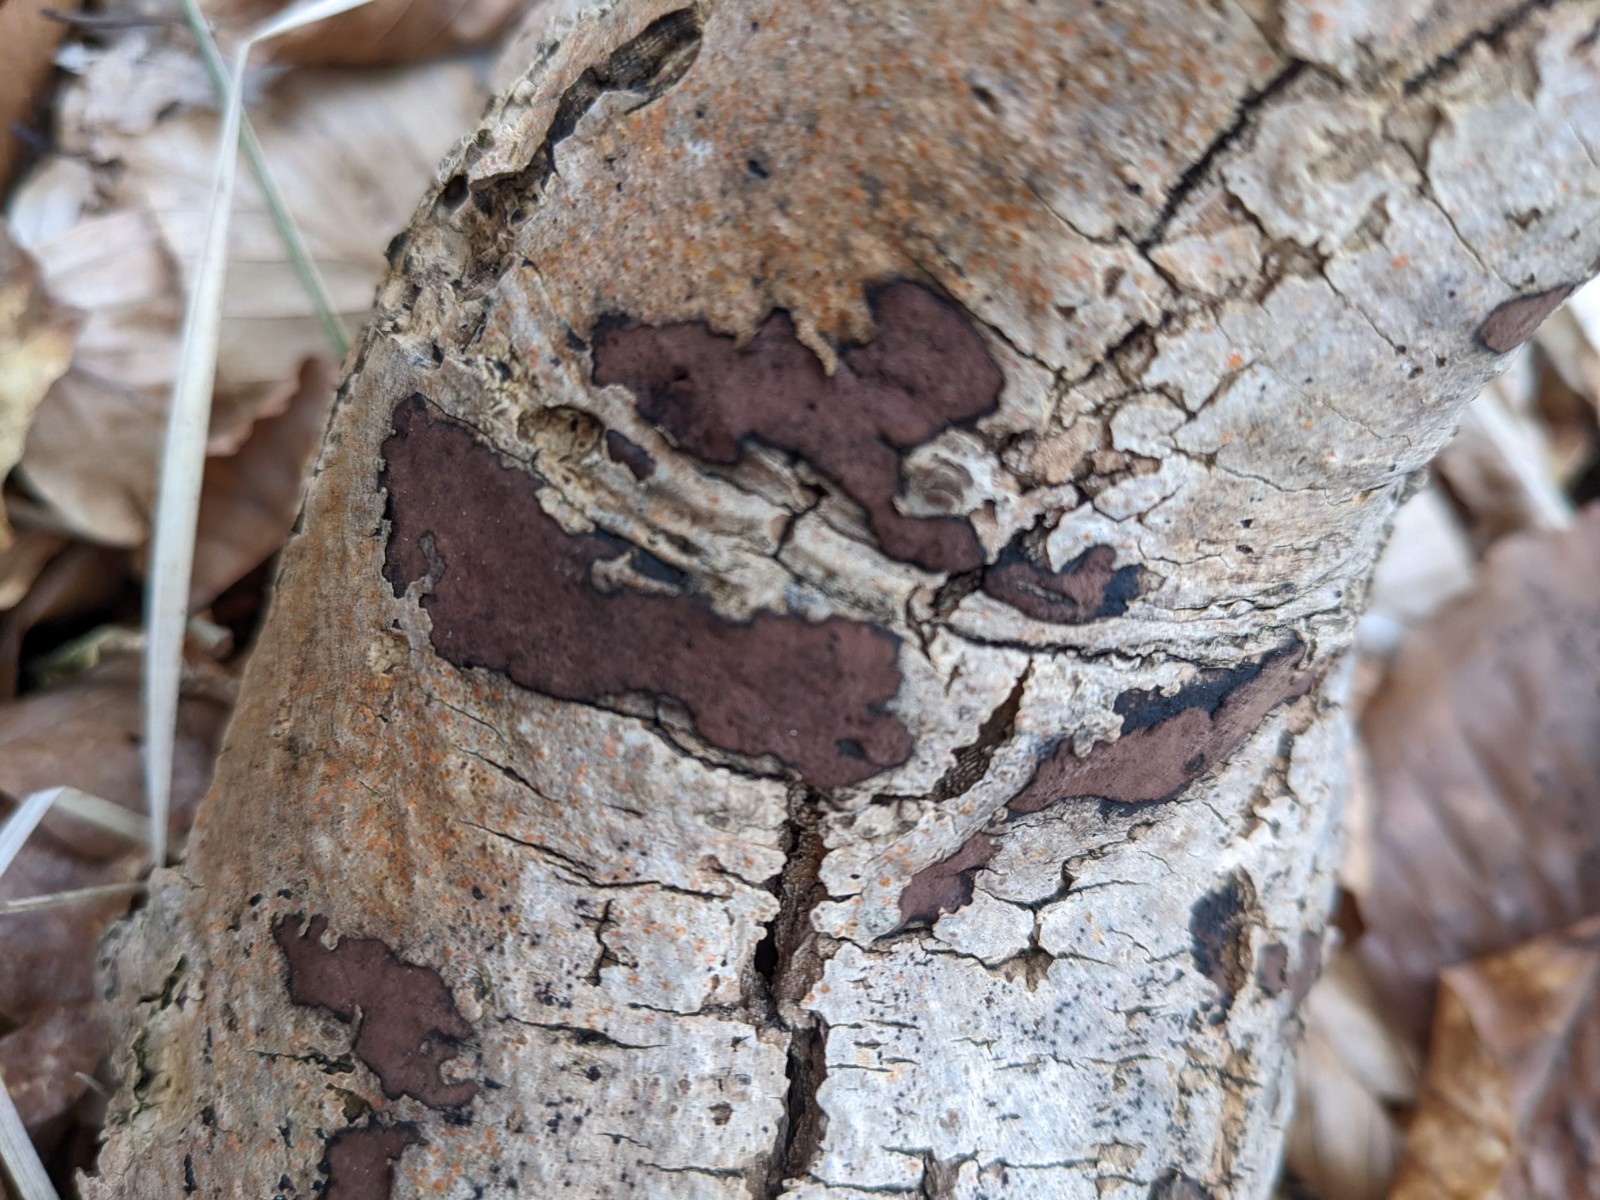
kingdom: Fungi
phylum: Ascomycota
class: Sordariomycetes
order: Xylariales
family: Hypoxylaceae
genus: Hypoxylon
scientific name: Hypoxylon petriniae
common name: nedsænket kulbær
